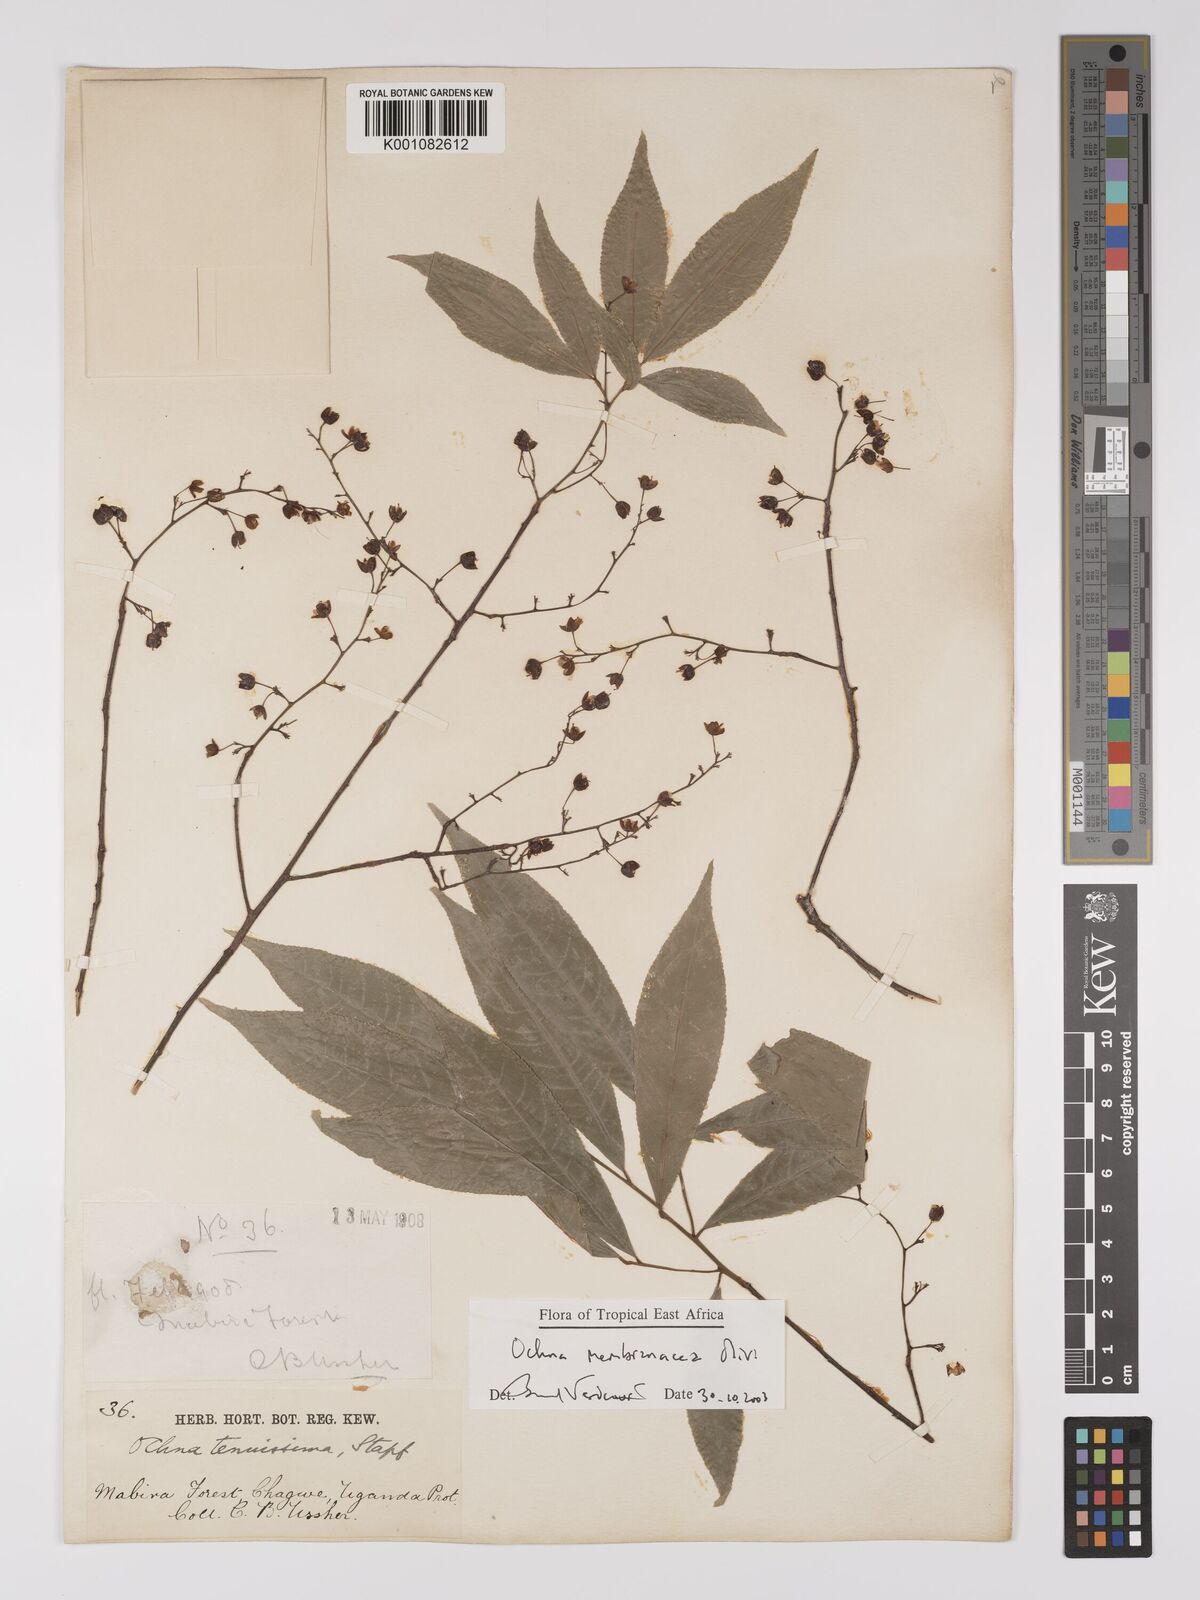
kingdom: Plantae
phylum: Tracheophyta
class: Magnoliopsida
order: Malpighiales
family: Ochnaceae
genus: Ochna
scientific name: Ochna membranacea
